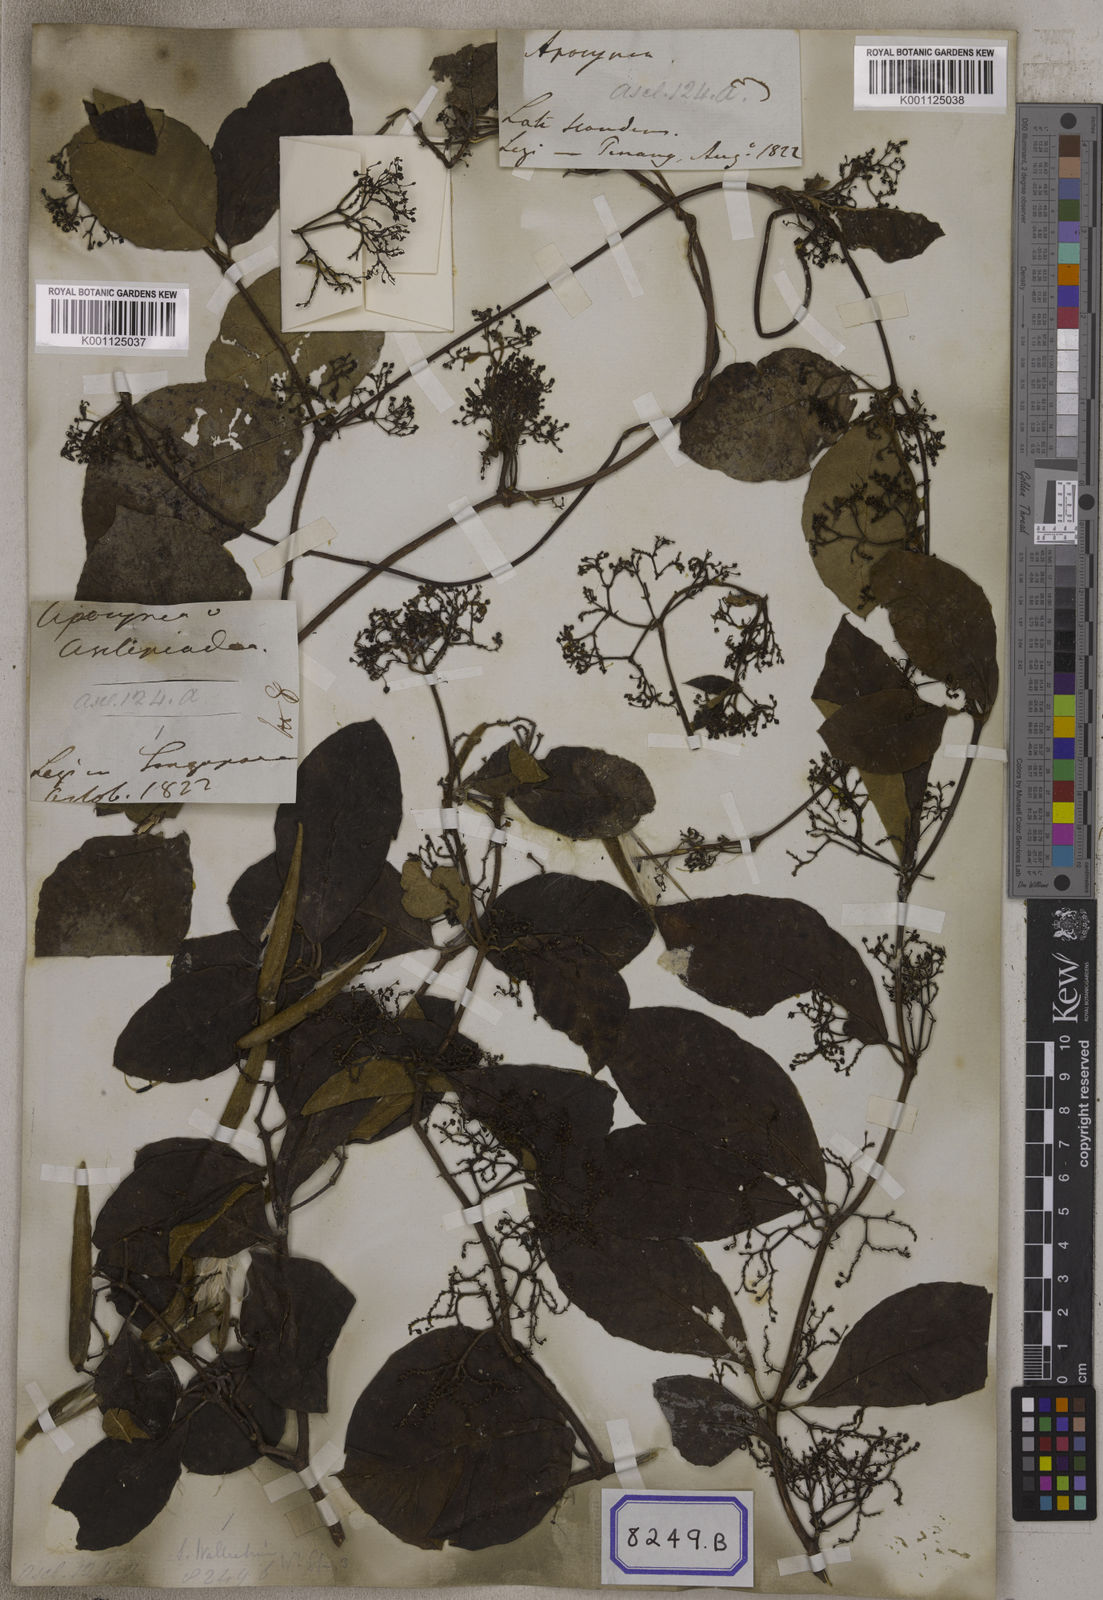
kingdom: Plantae
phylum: Tracheophyta
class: Magnoliopsida
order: Gentianales
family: Apocynaceae
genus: Streptocaulon
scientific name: Streptocaulon wallichii
